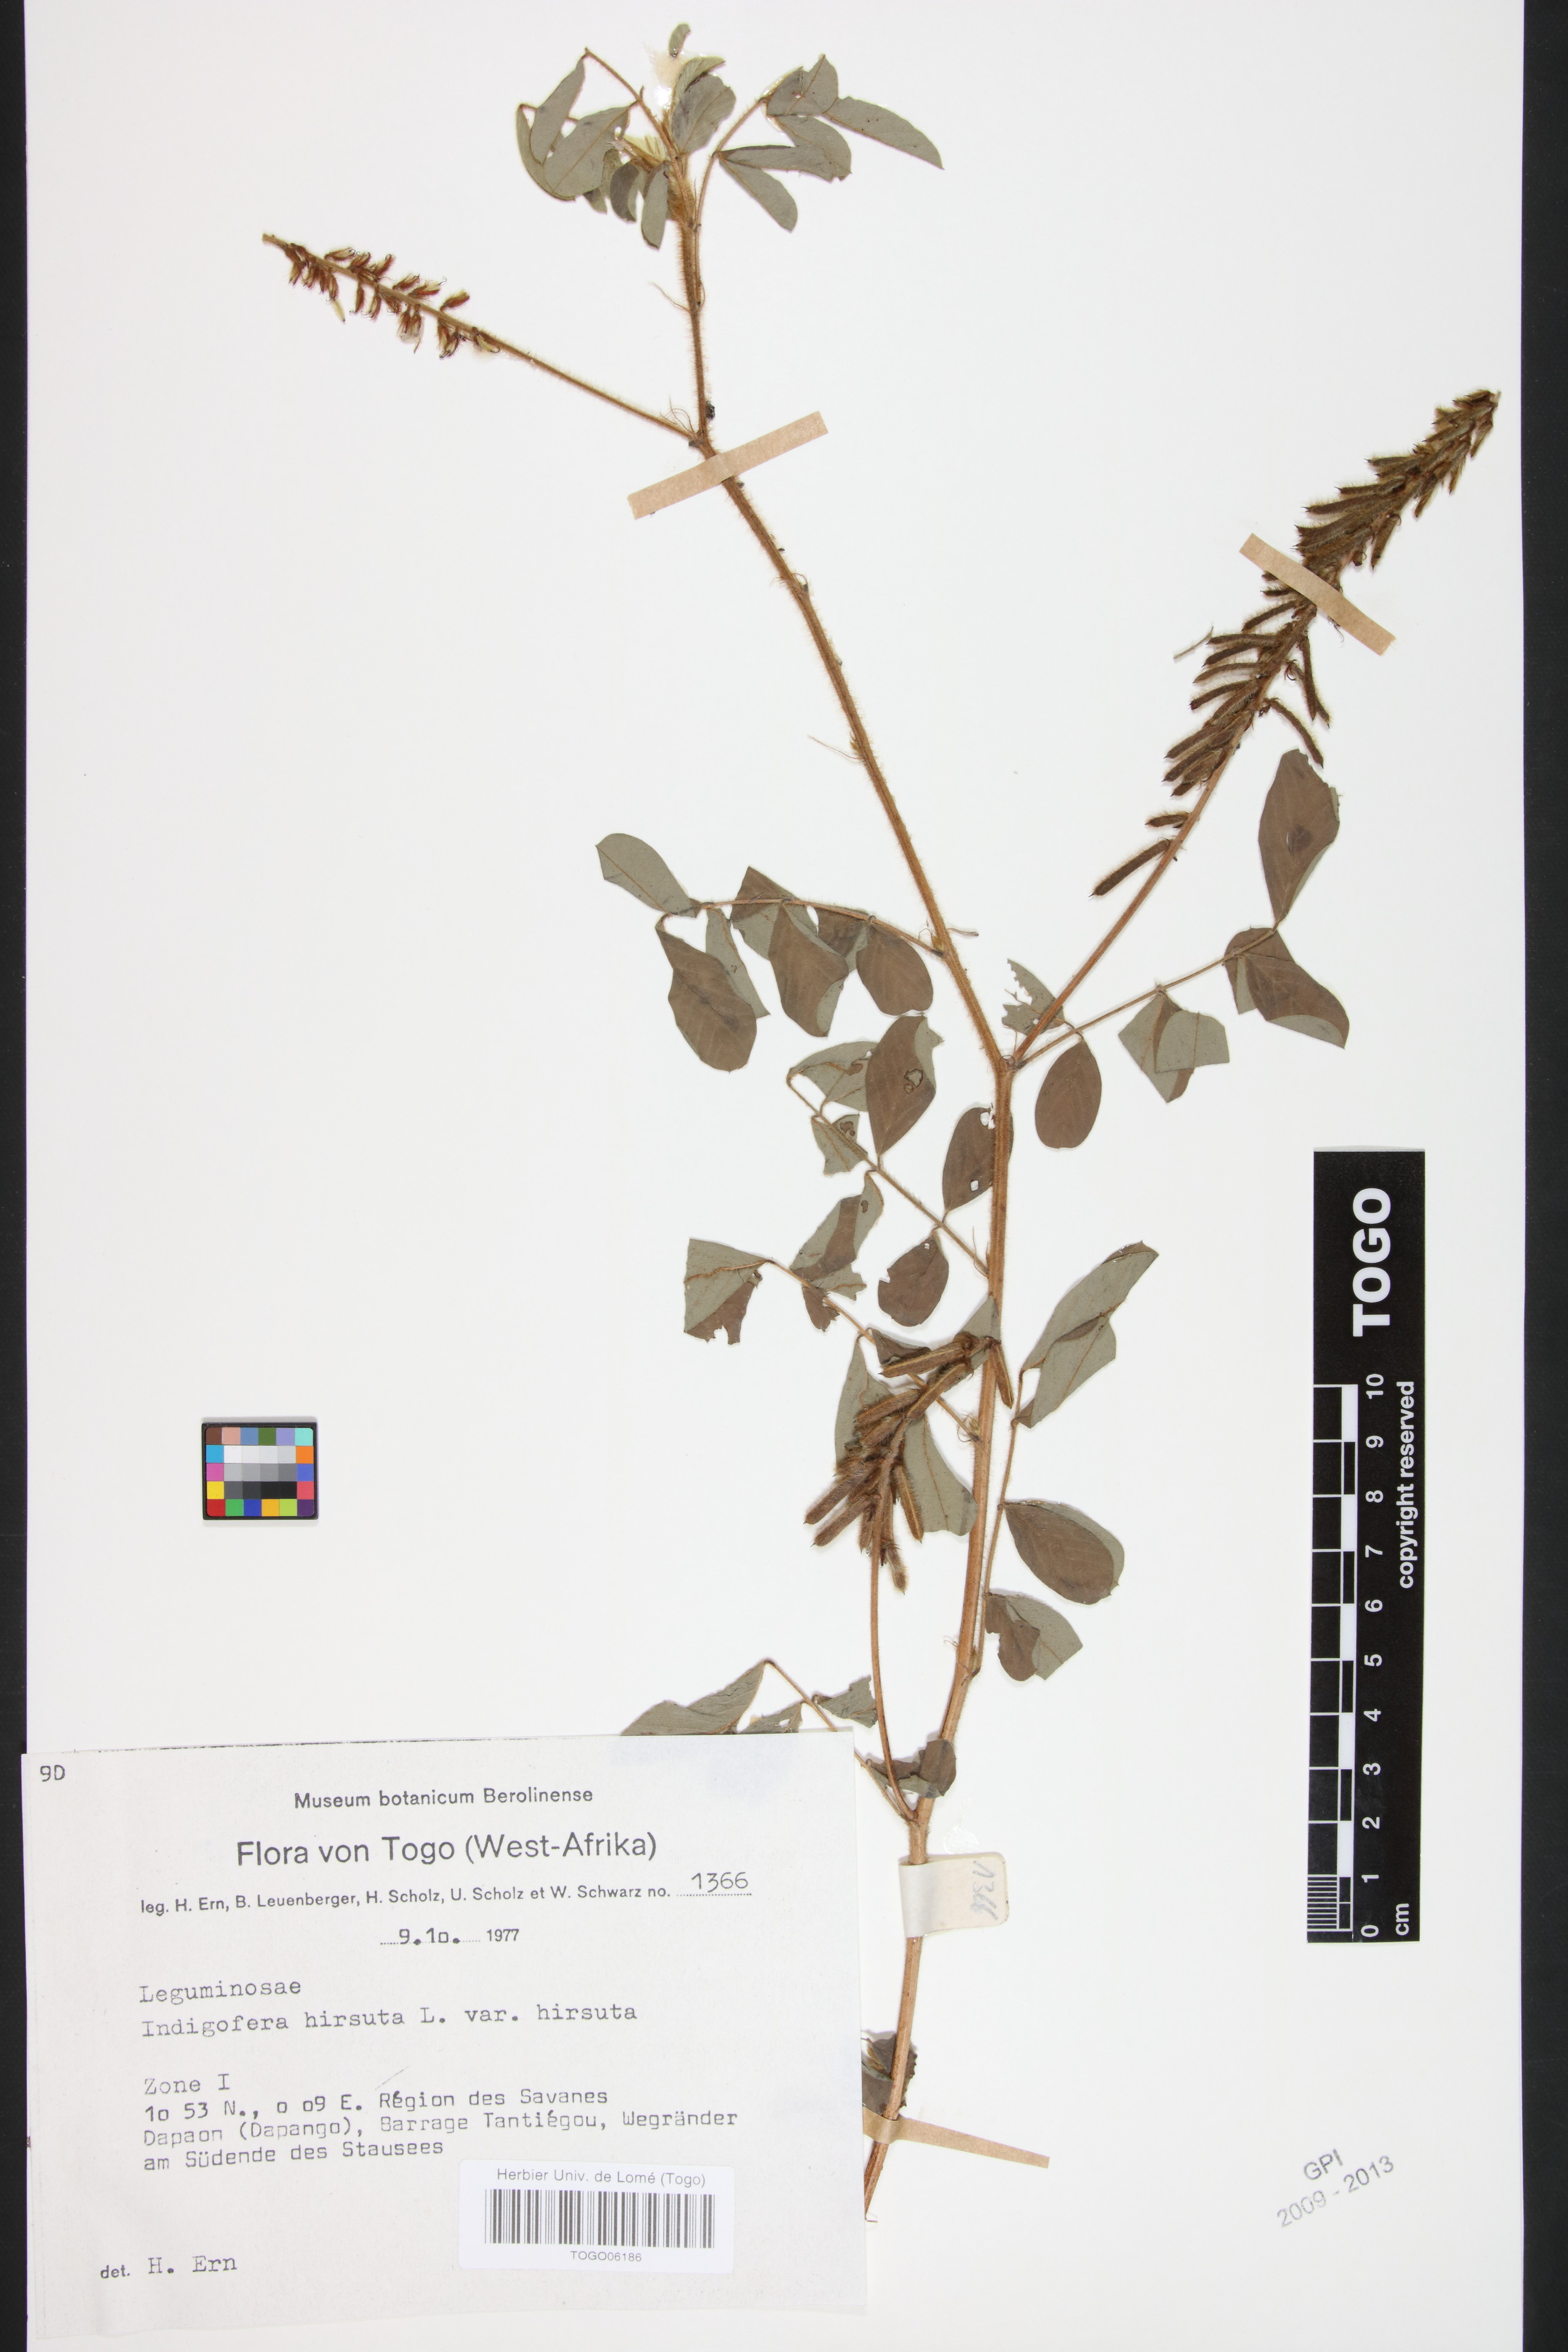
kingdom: Plantae
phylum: Tracheophyta
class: Magnoliopsida
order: Fabales
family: Fabaceae
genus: Indigofera
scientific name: Indigofera hirsuta
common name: Hairy indigo
